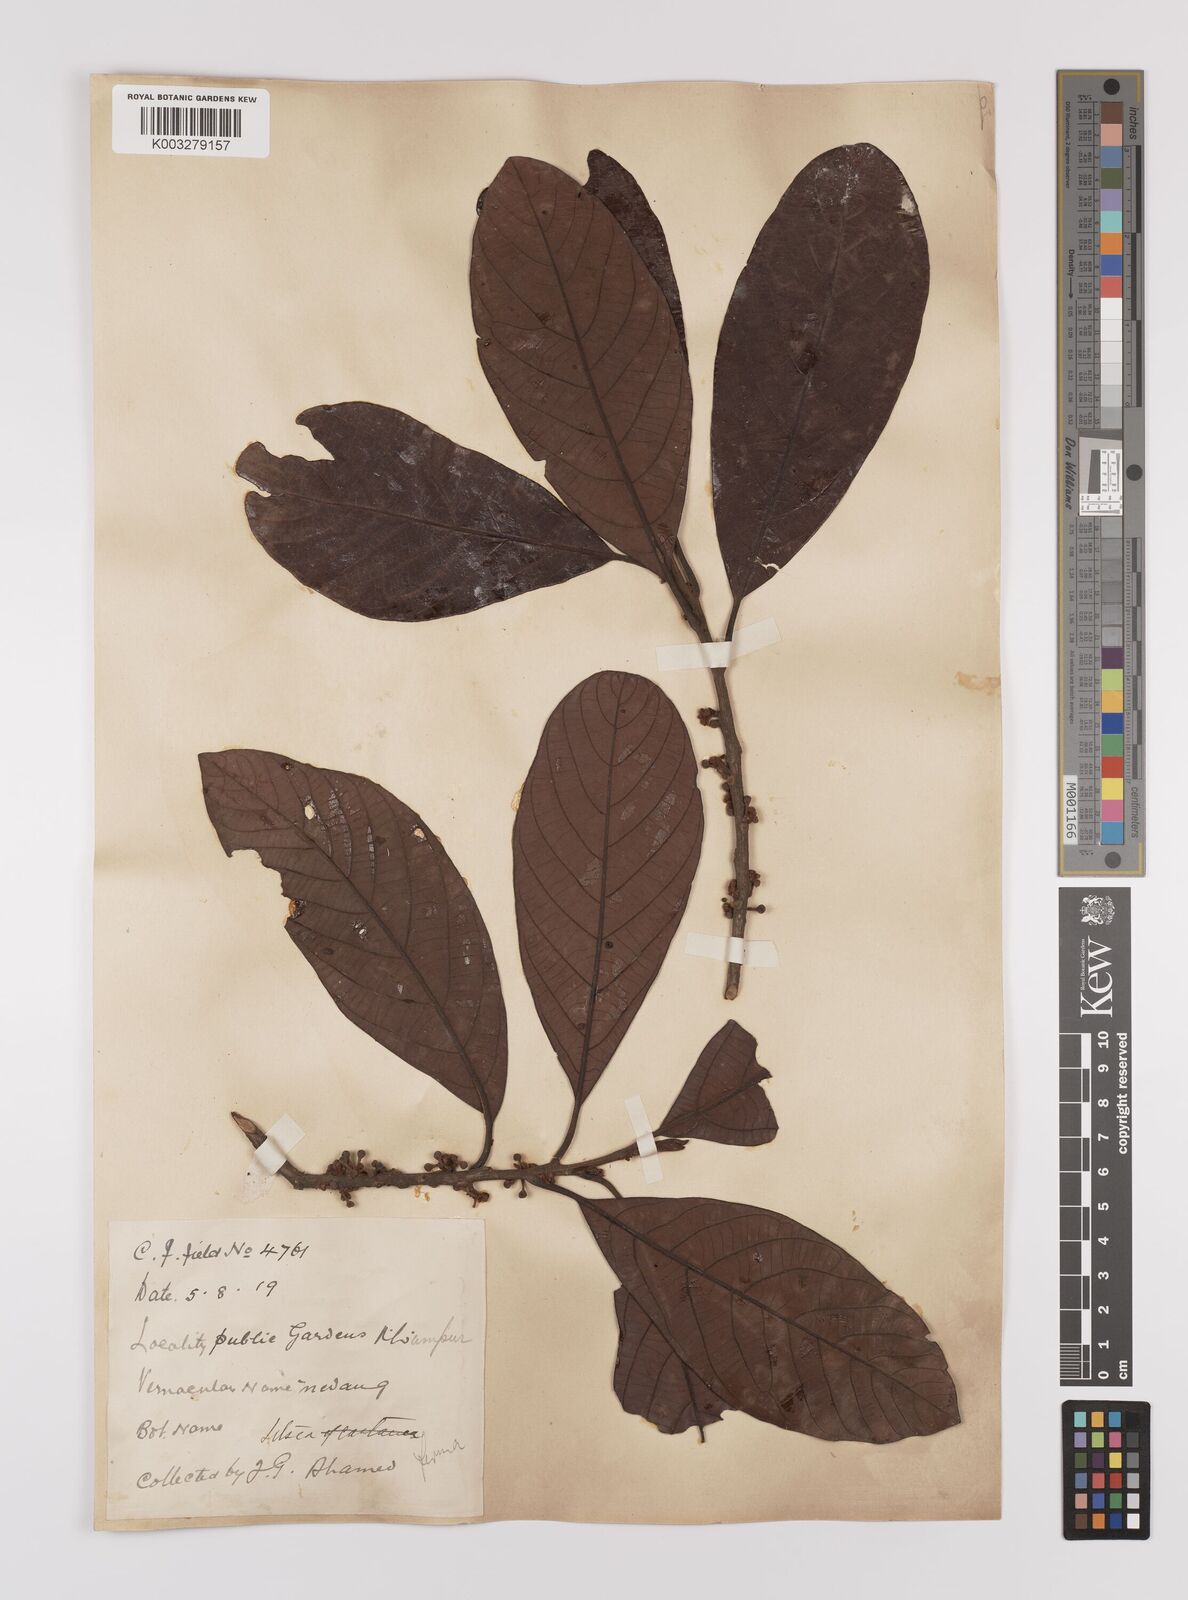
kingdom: Plantae
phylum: Tracheophyta
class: Magnoliopsida
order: Laurales
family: Lauraceae
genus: Litsea
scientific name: Litsea firma
